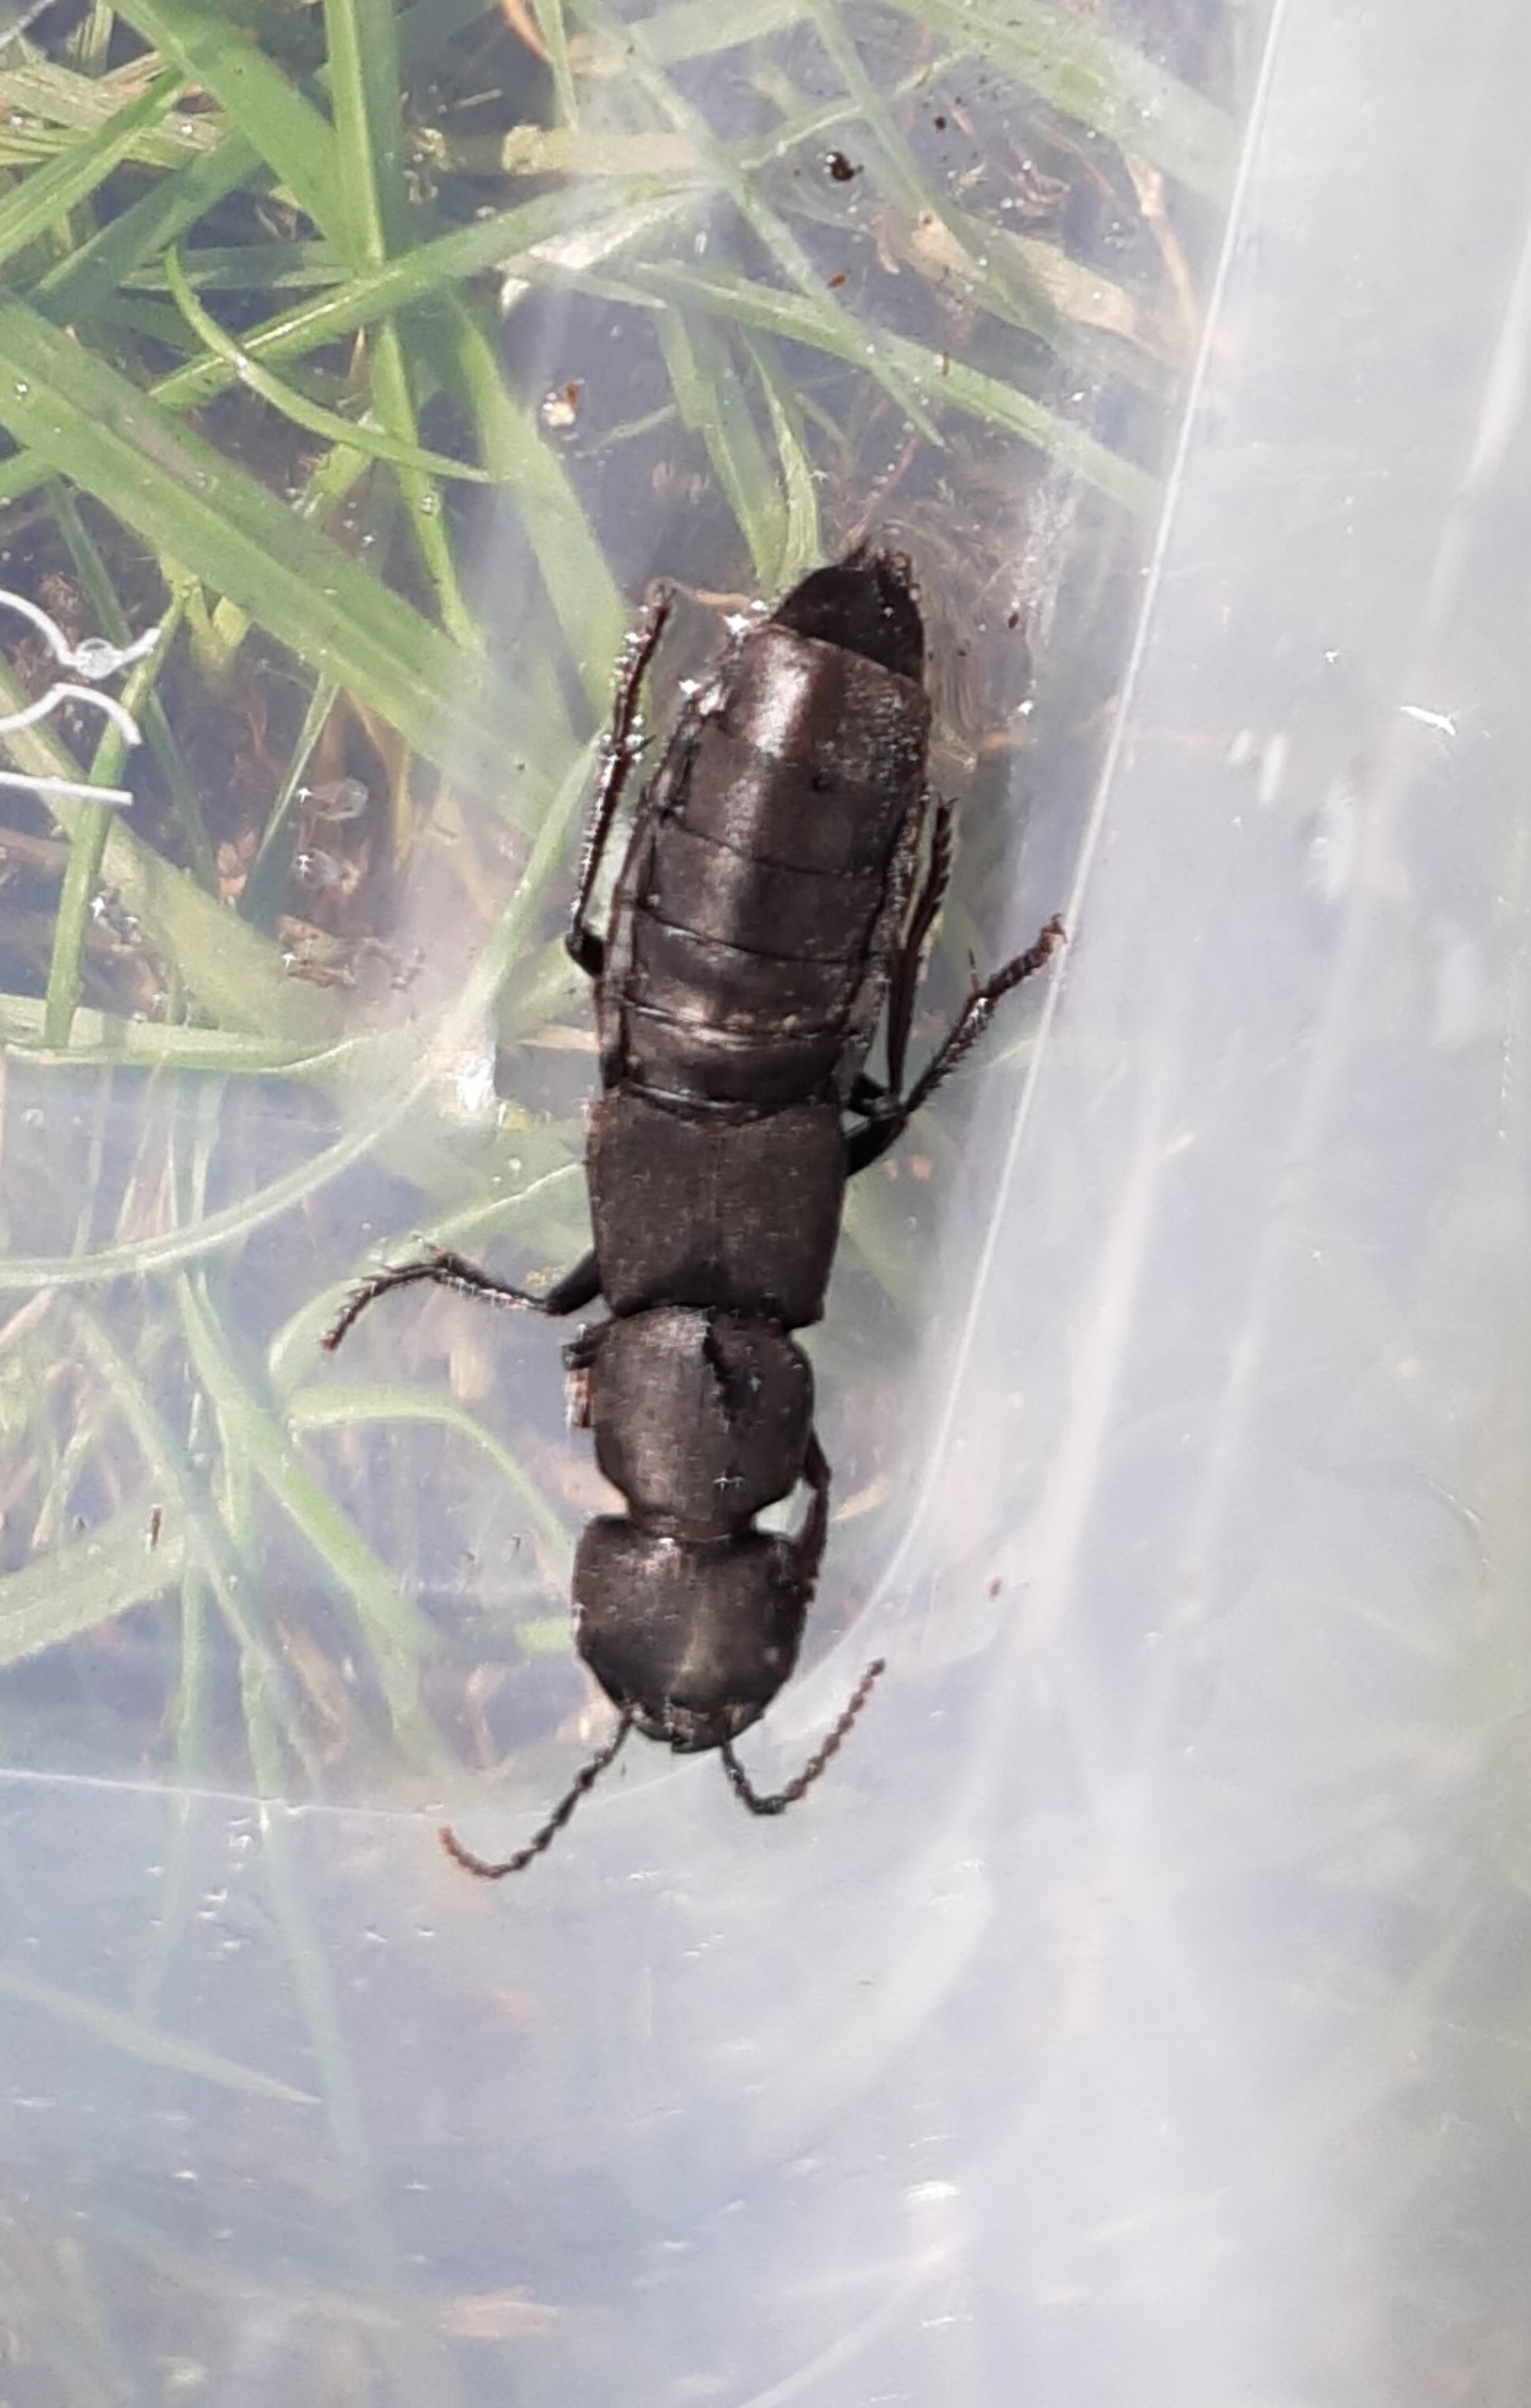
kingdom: Animalia
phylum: Arthropoda
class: Insecta
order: Coleoptera
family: Staphylinidae
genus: Ocypus
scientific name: Ocypus
